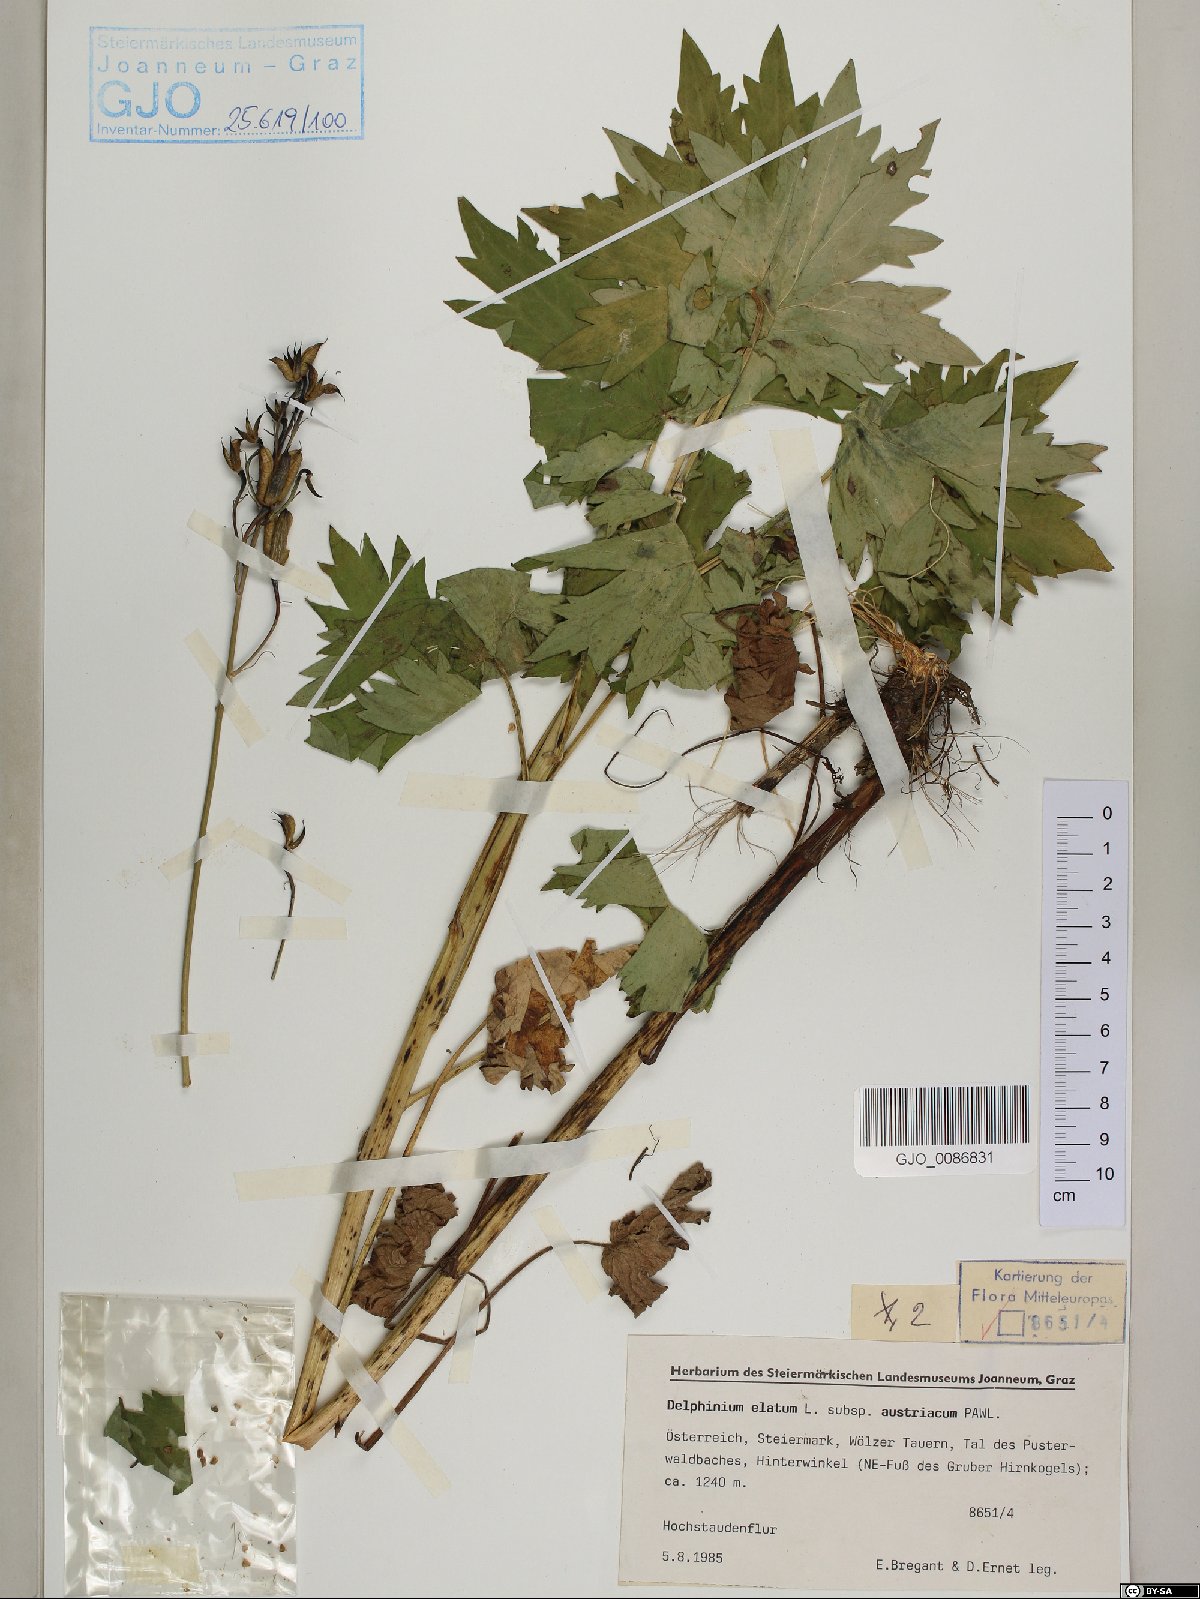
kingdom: Plantae
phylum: Tracheophyta
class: Magnoliopsida
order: Ranunculales
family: Ranunculaceae
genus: Delphinium
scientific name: Delphinium austriacum
